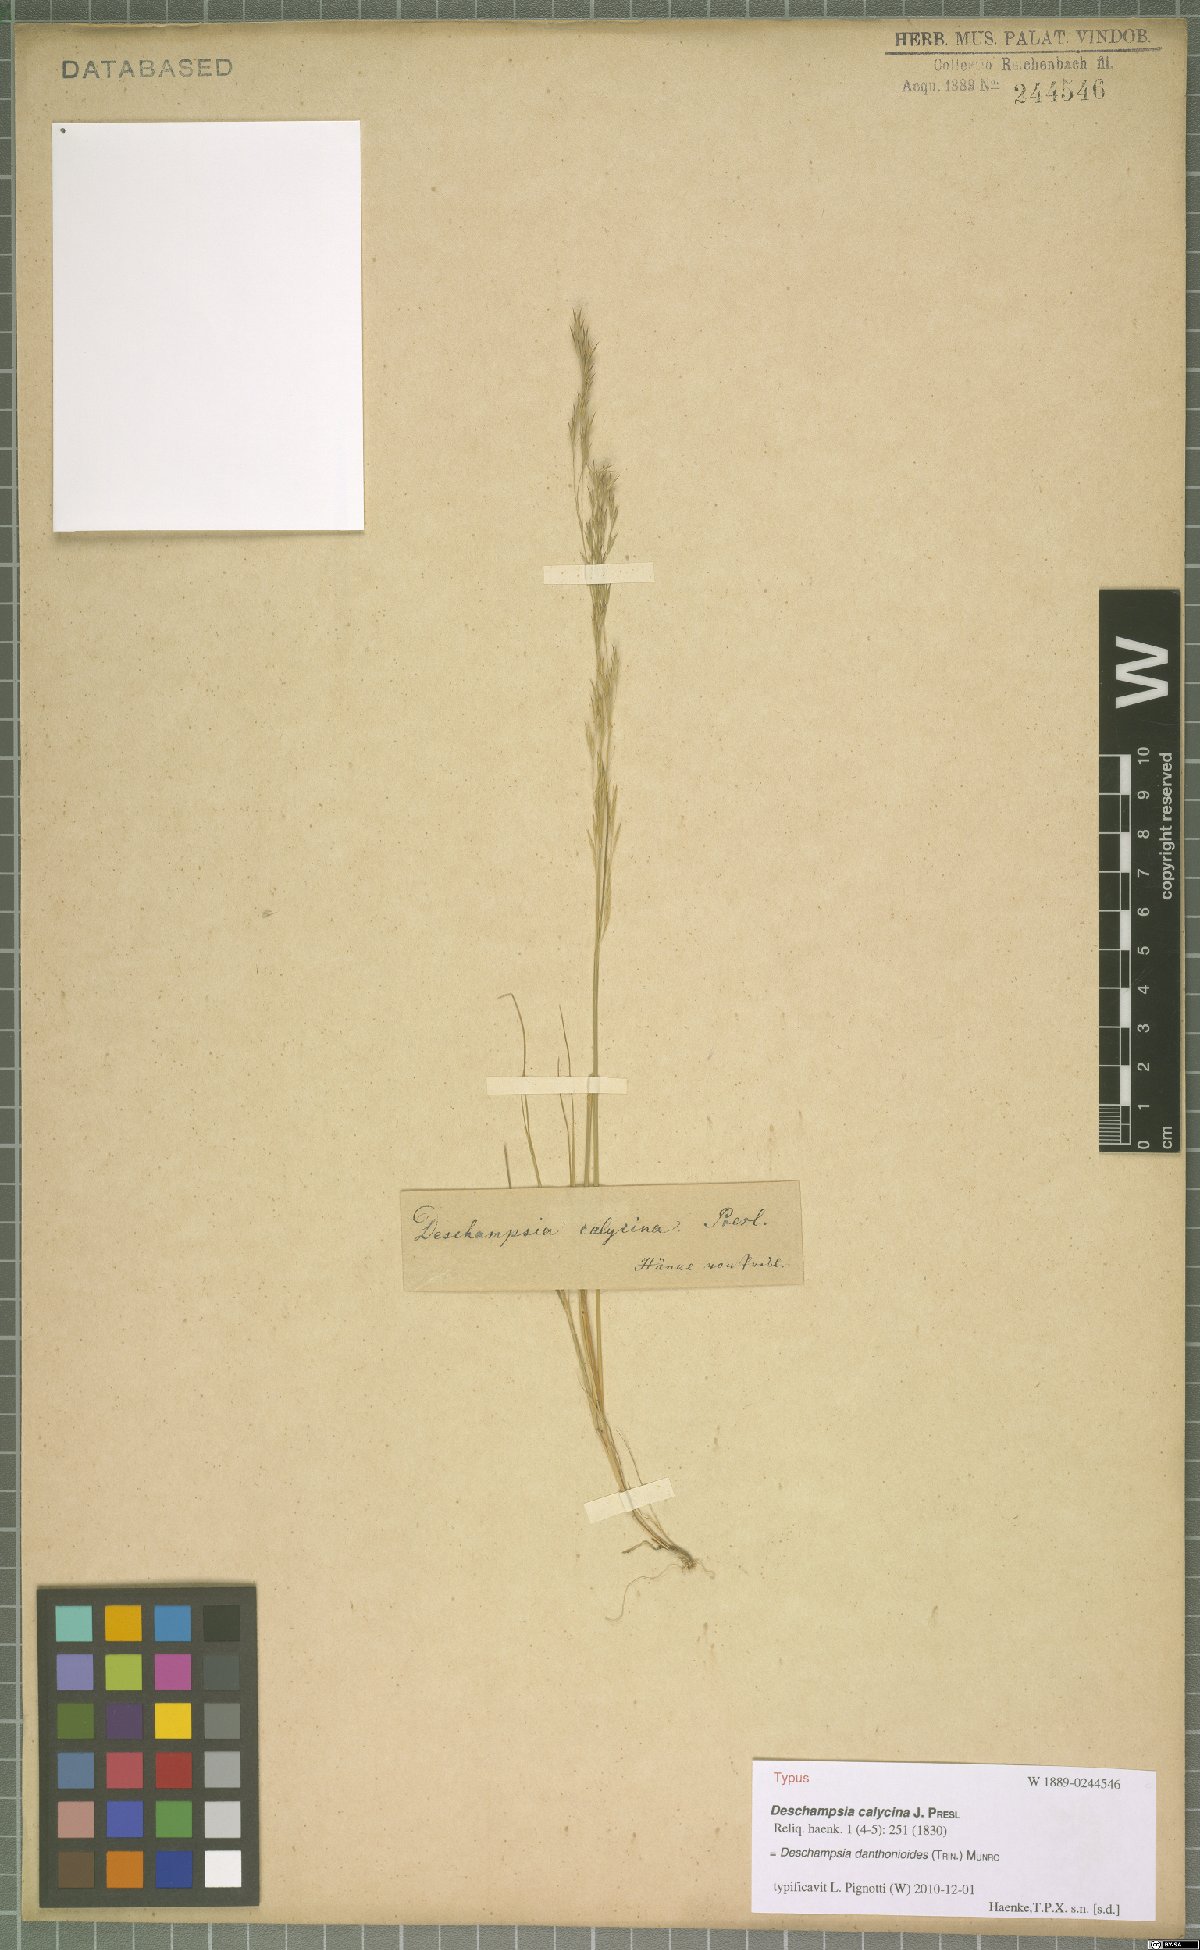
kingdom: Plantae
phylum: Tracheophyta
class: Liliopsida
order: Poales
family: Poaceae
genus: Deschampsia
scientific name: Deschampsia danthonioides
